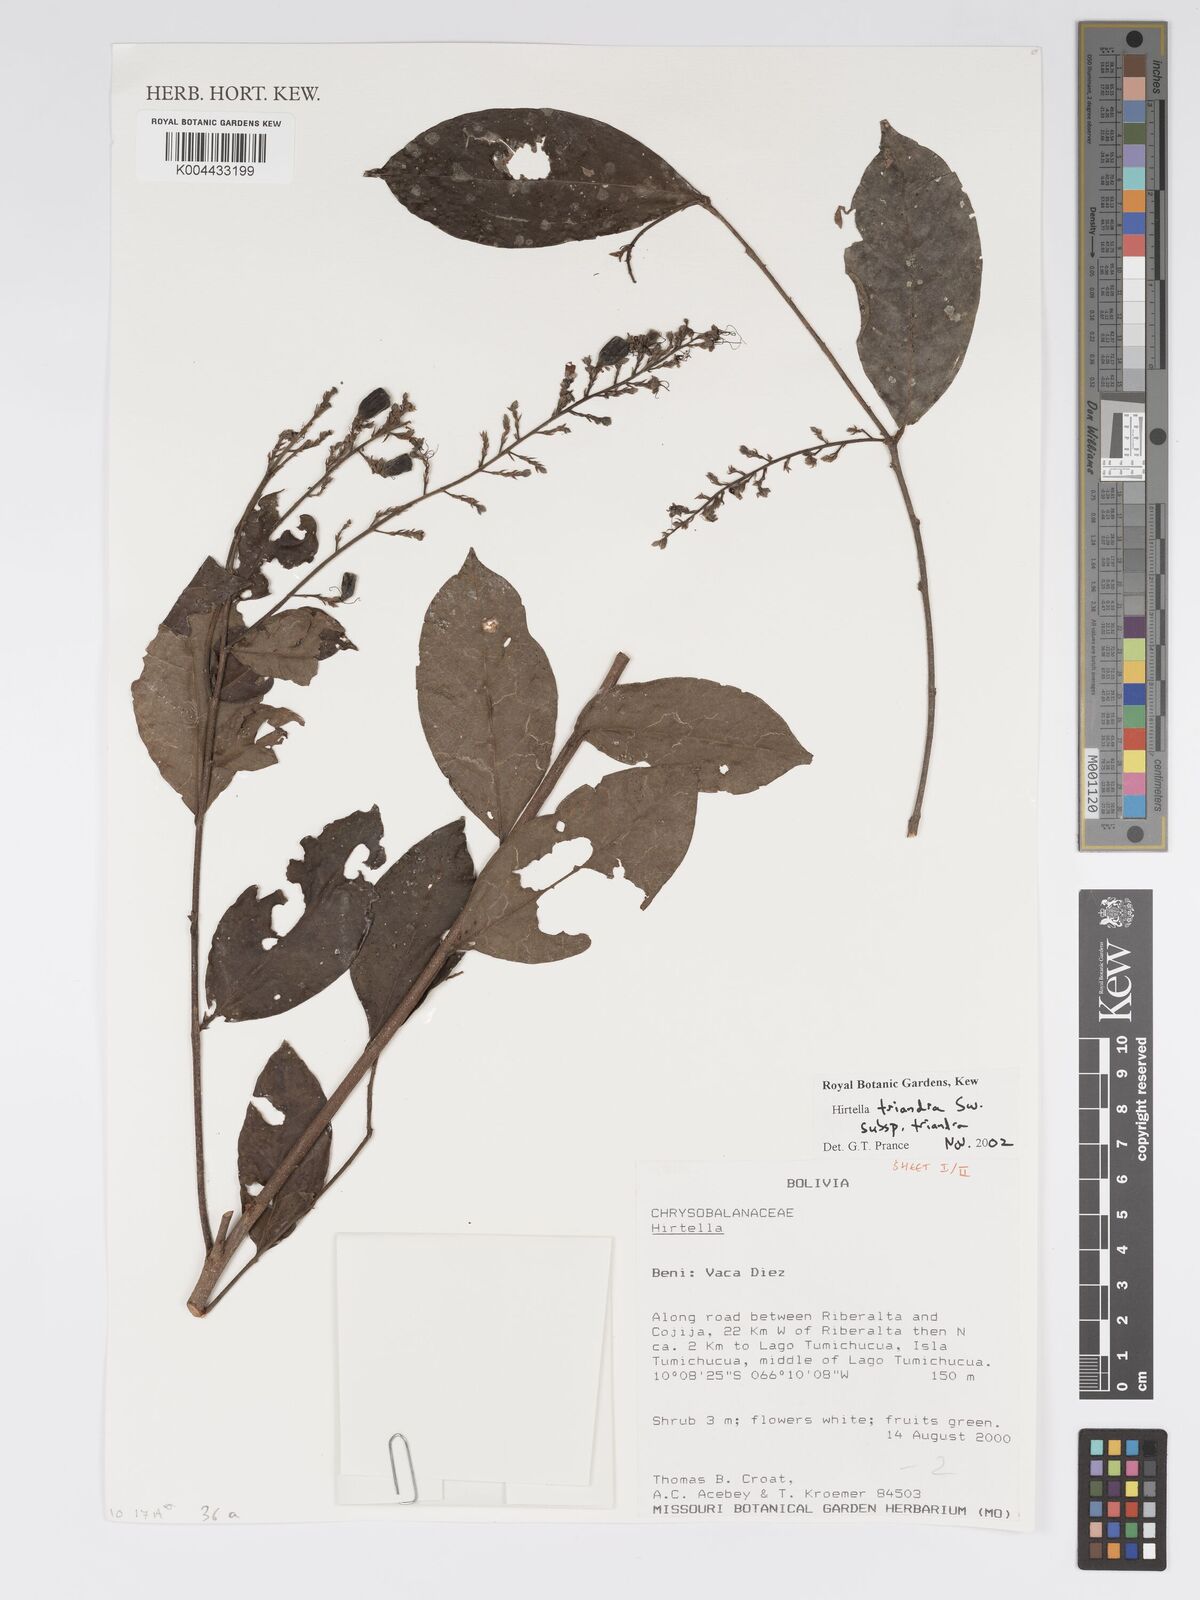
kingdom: Plantae
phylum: Tracheophyta
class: Magnoliopsida
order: Malpighiales
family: Chrysobalanaceae
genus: Hirtella
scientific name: Hirtella triandra
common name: Hairy plum
